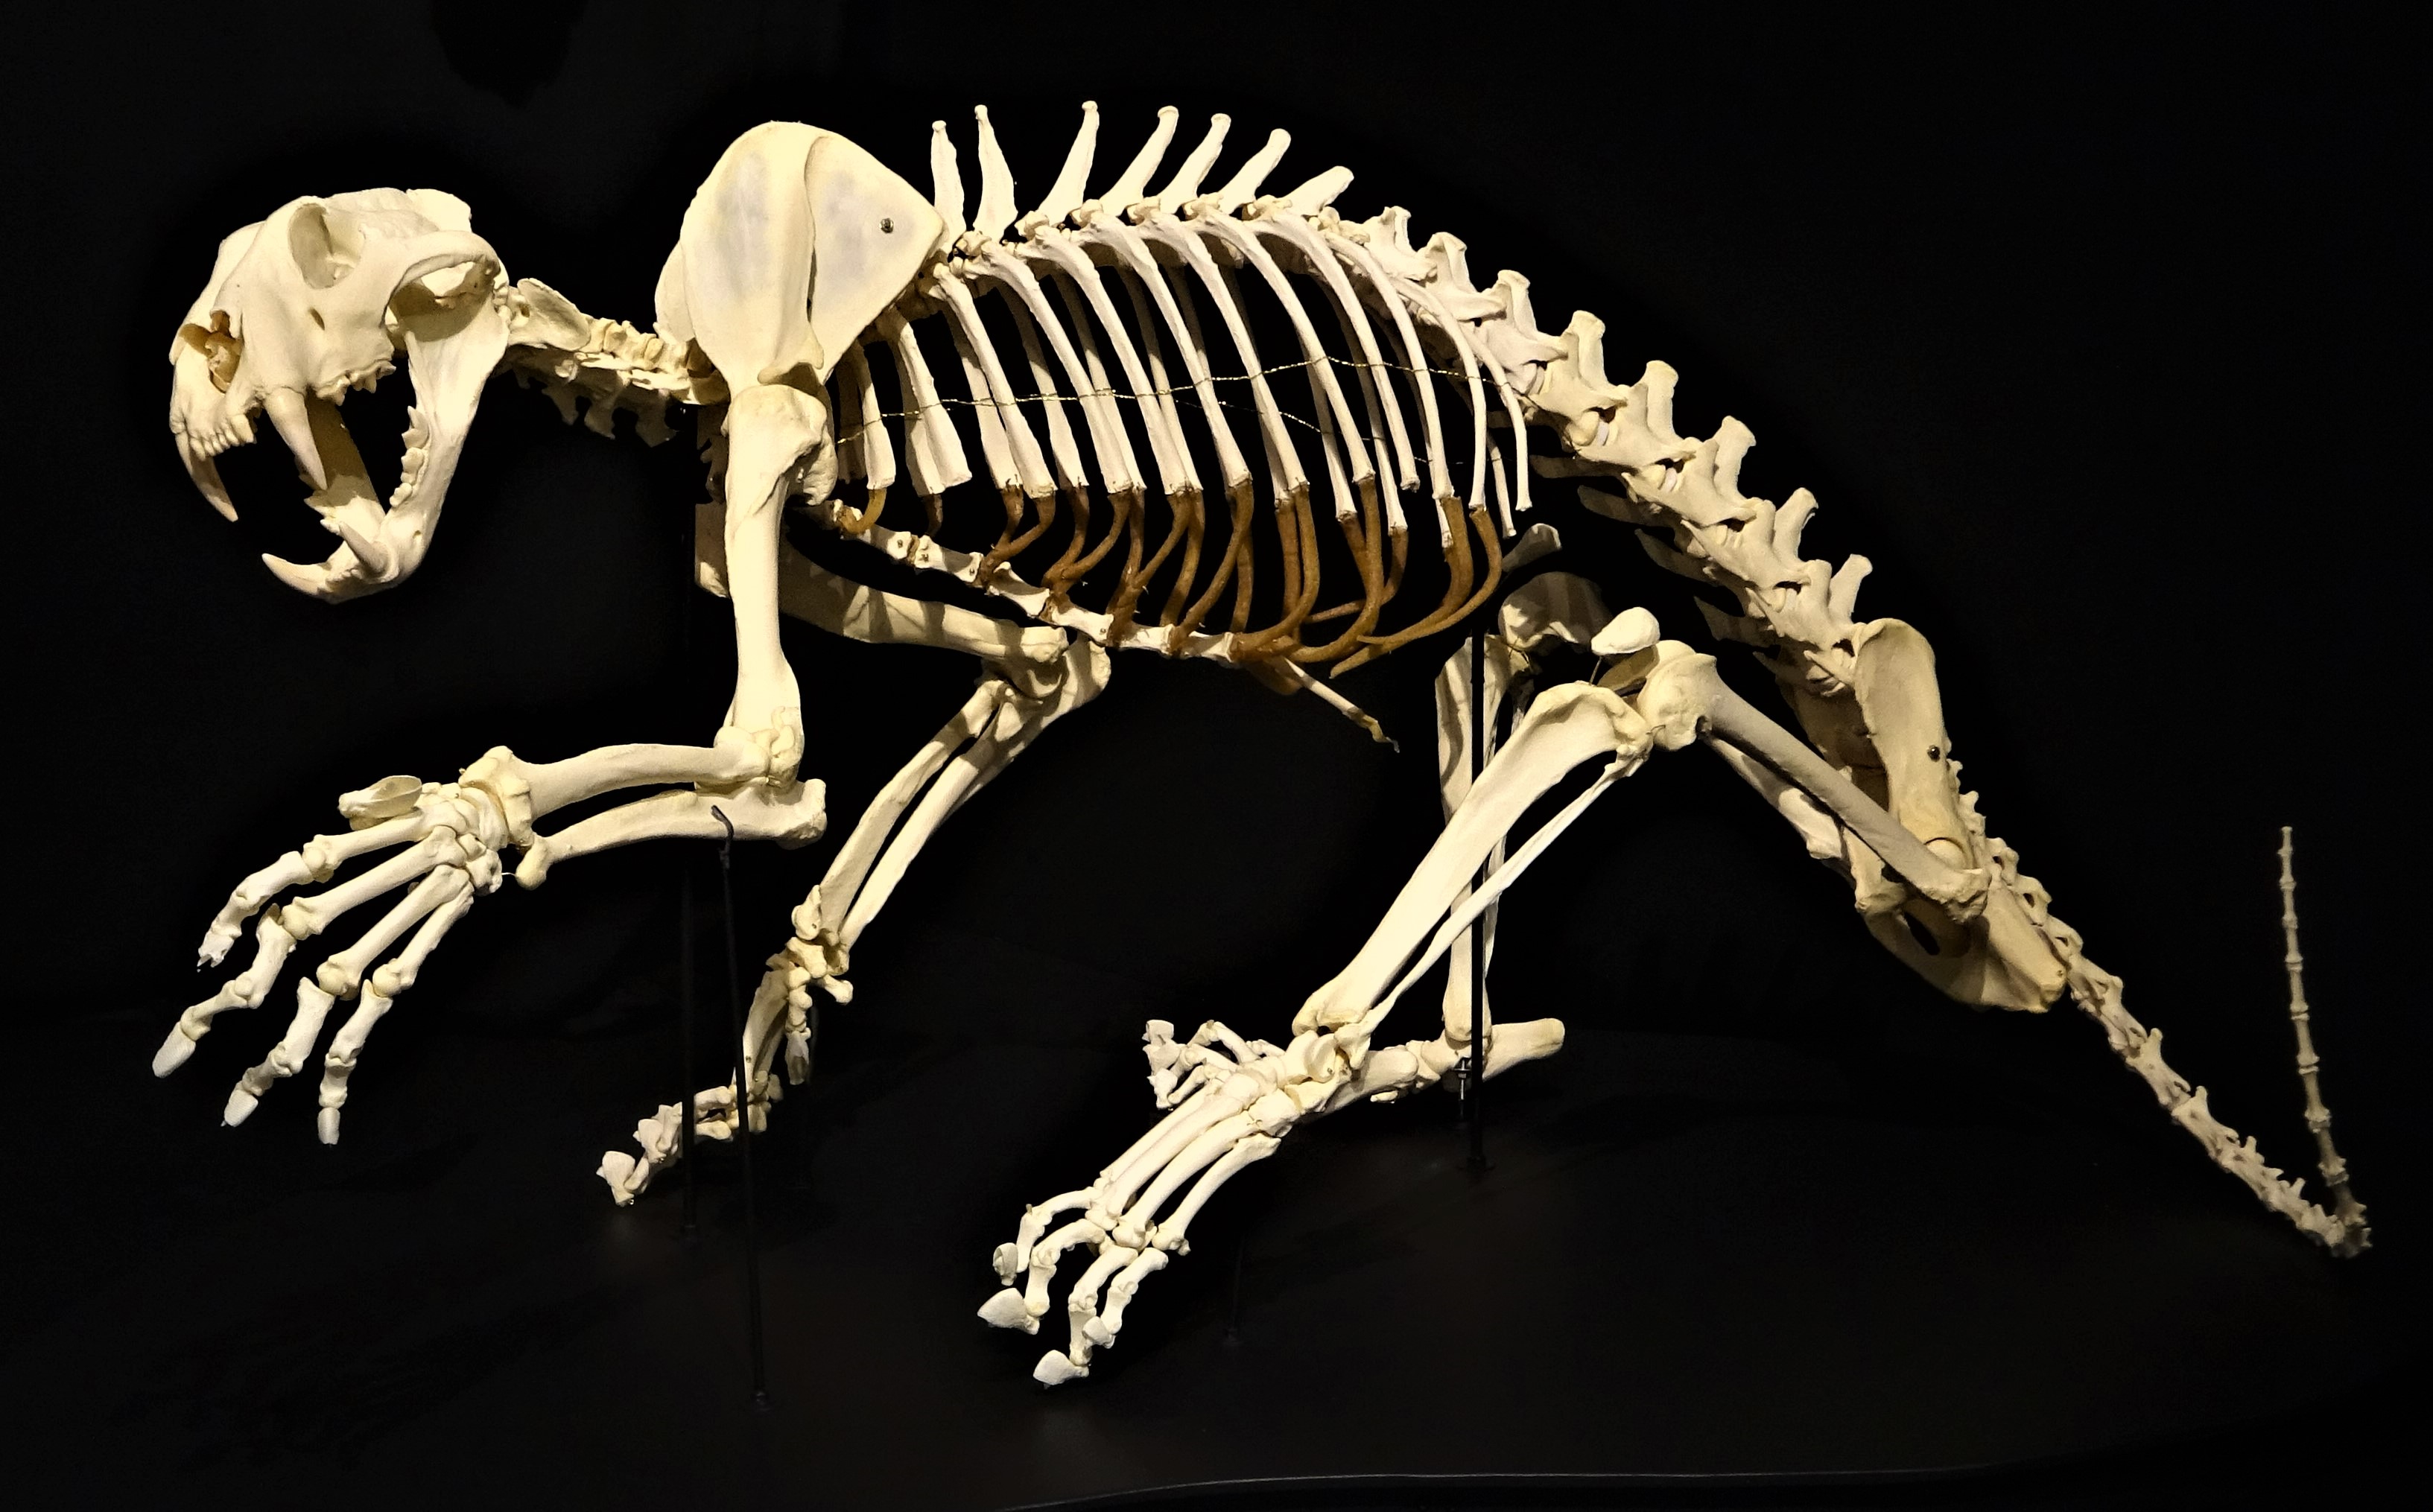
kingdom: Animalia
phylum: Chordata
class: Mammalia
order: Carnivora
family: Felidae
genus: Panthera
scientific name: Panthera tigris
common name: Tiger
